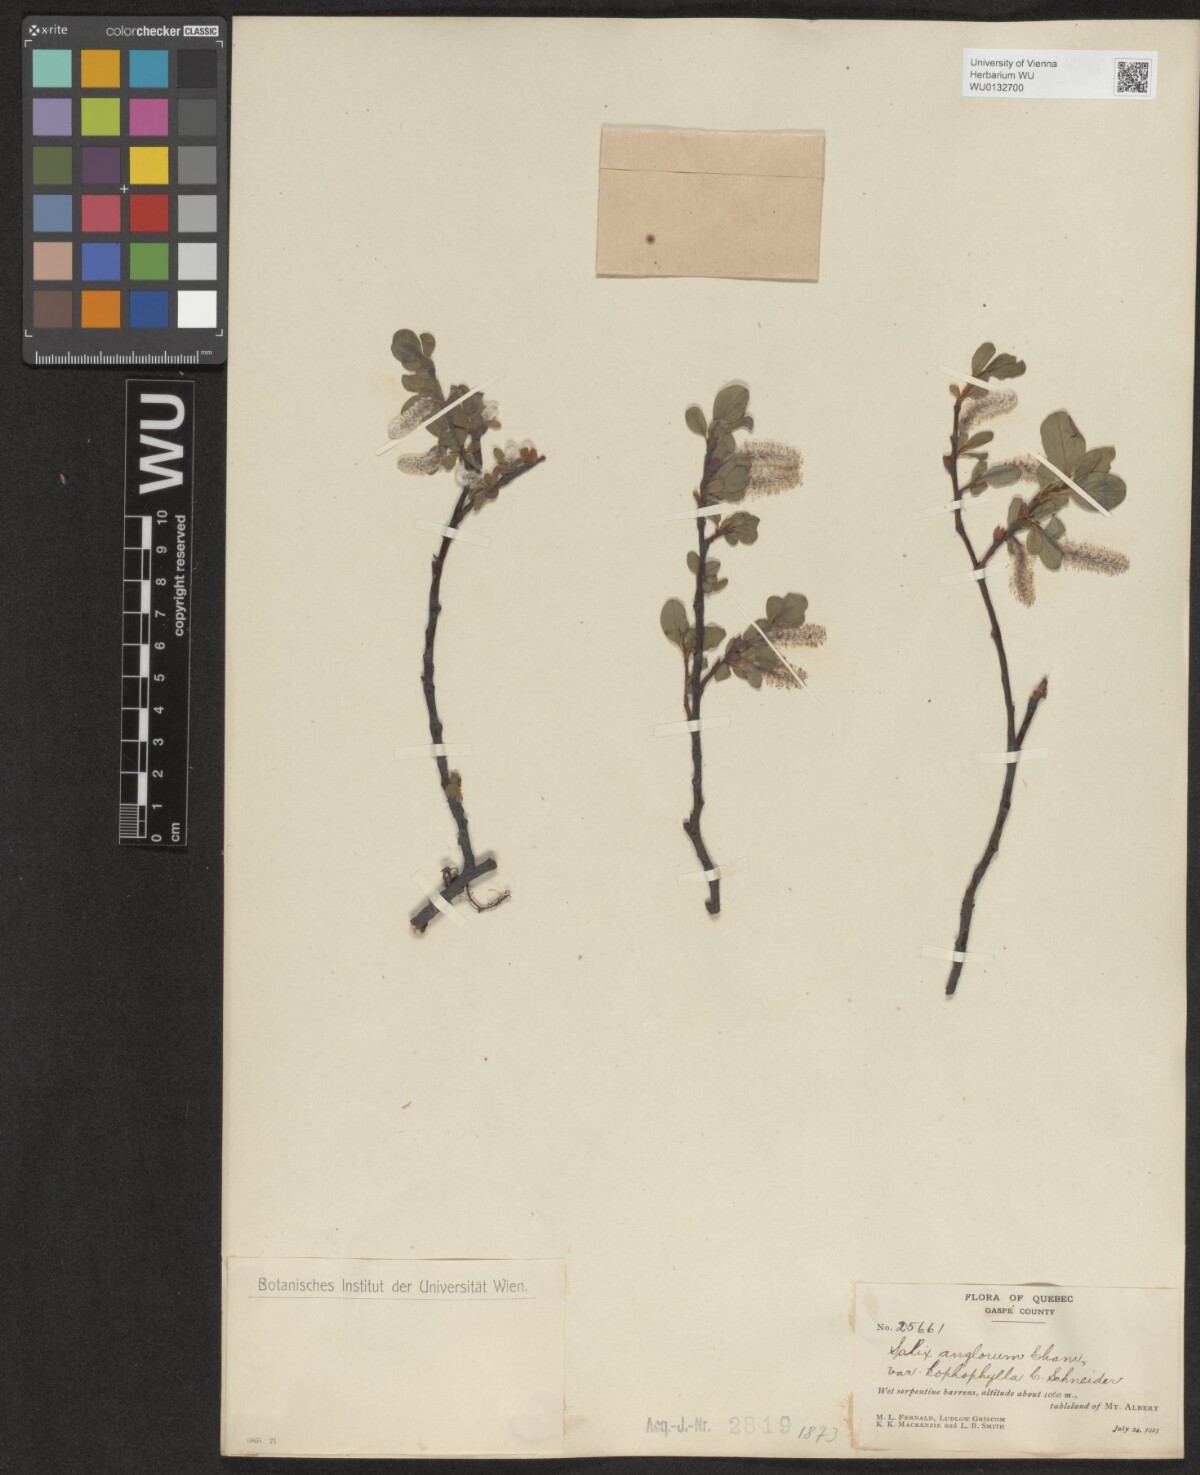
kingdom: Plantae
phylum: Tracheophyta
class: Magnoliopsida
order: Malpighiales
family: Salicaceae
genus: Salix
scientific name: Salix arctica
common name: Arctic willow
